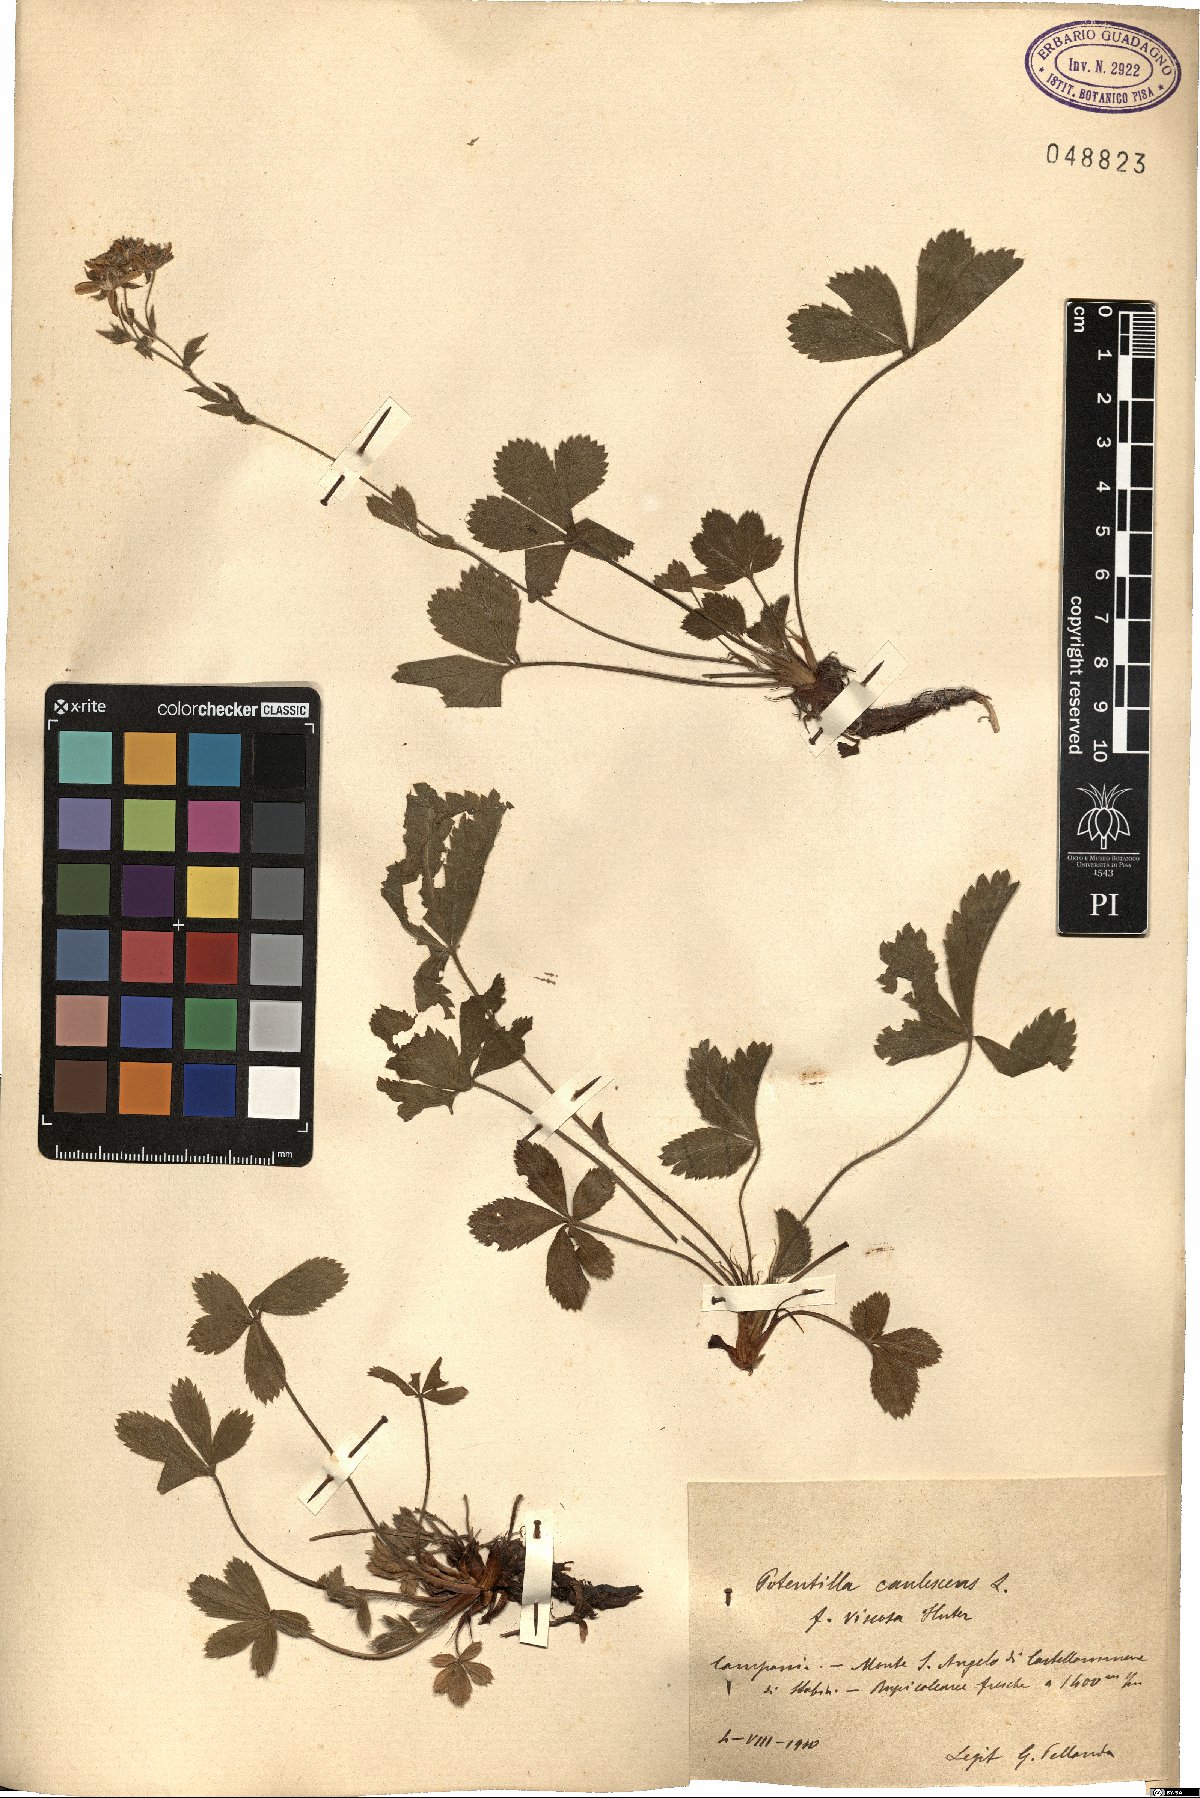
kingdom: Plantae
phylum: Tracheophyta
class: Magnoliopsida
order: Rosales
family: Rosaceae
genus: Potentilla
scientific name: Potentilla caulescens
